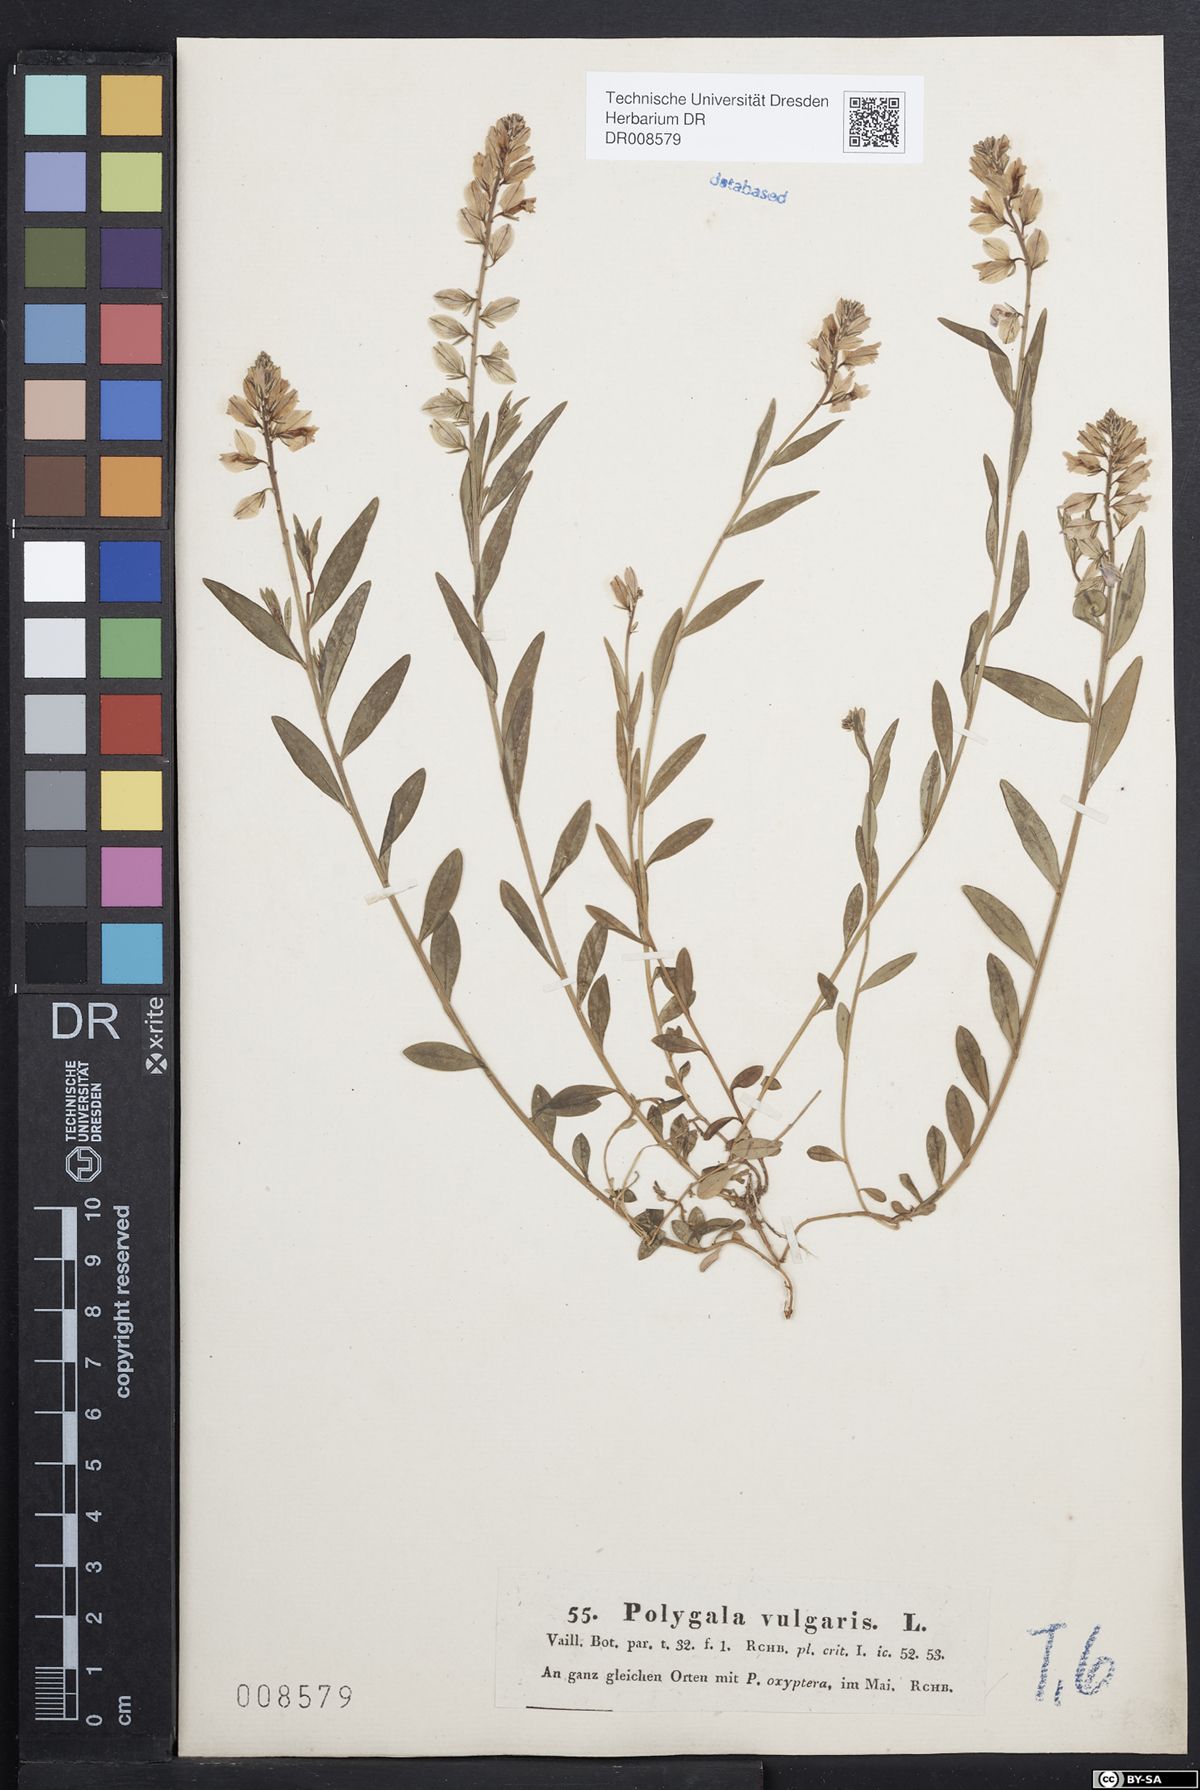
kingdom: Plantae
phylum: Tracheophyta
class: Magnoliopsida
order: Fabales
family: Polygalaceae
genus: Polygala
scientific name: Polygala vulgaris
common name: Common milkwort
